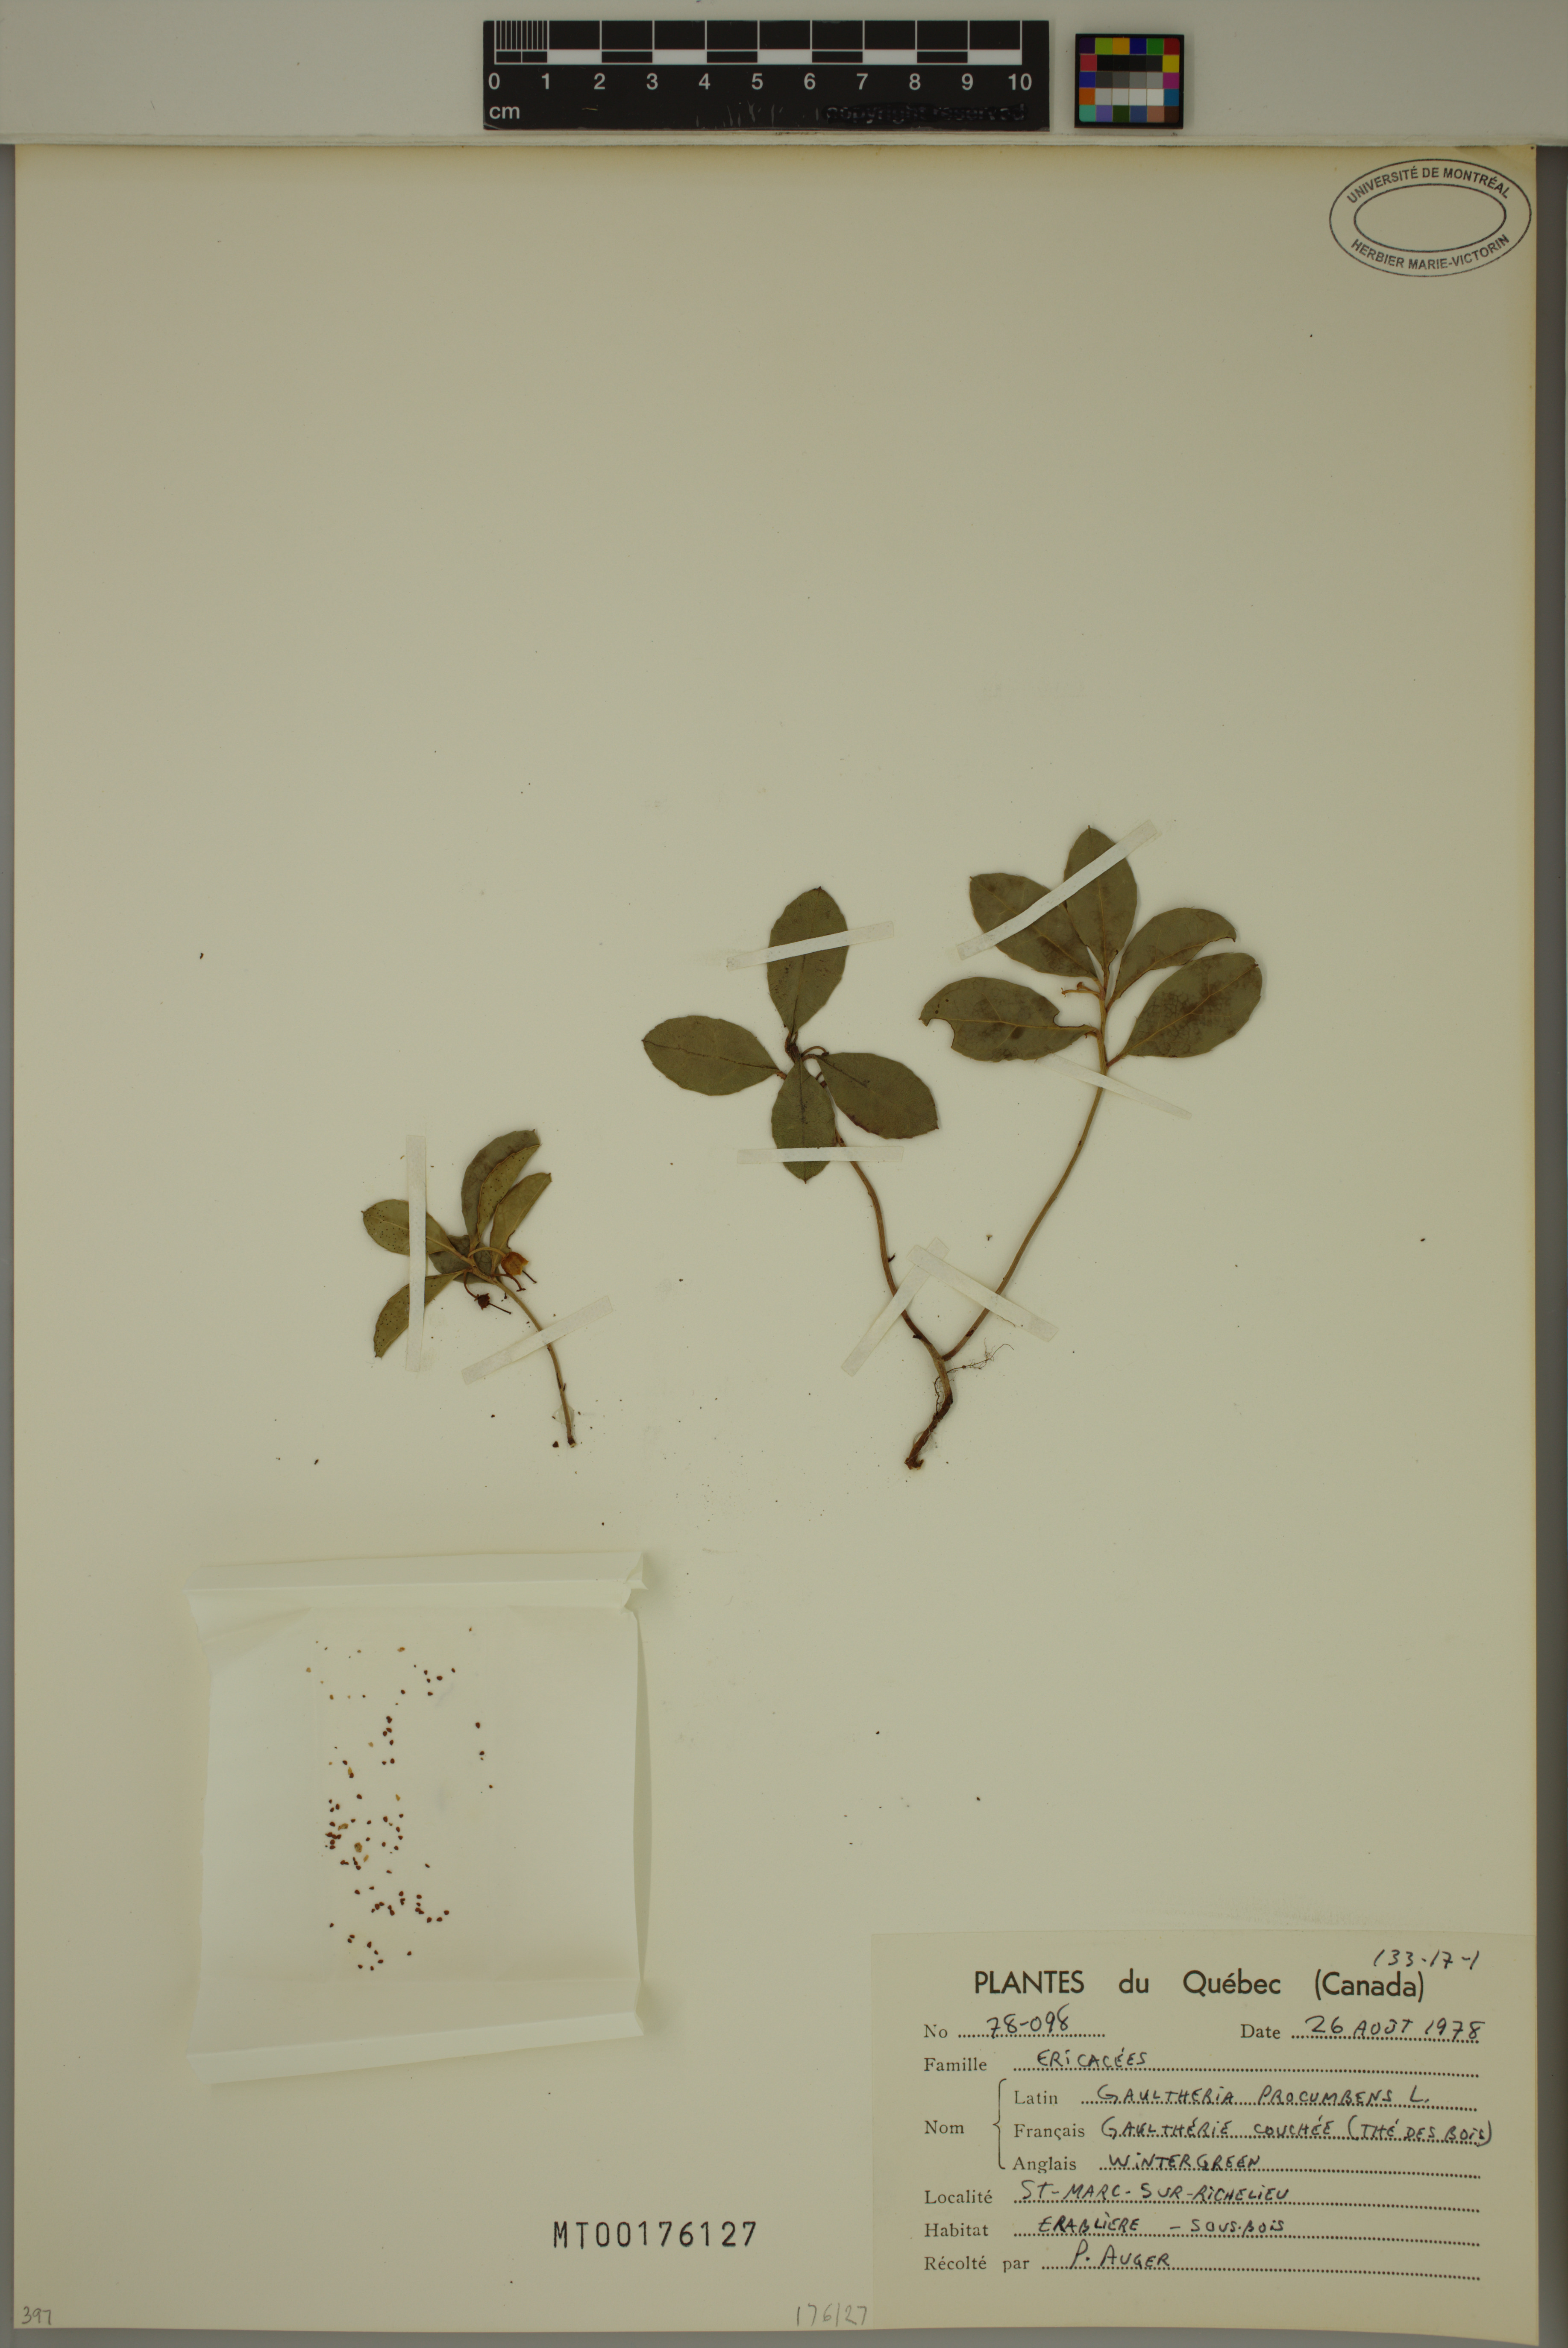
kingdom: Plantae
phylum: Tracheophyta
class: Magnoliopsida
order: Ericales
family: Ericaceae
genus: Gaultheria
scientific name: Gaultheria procumbens
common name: Checkerberry
